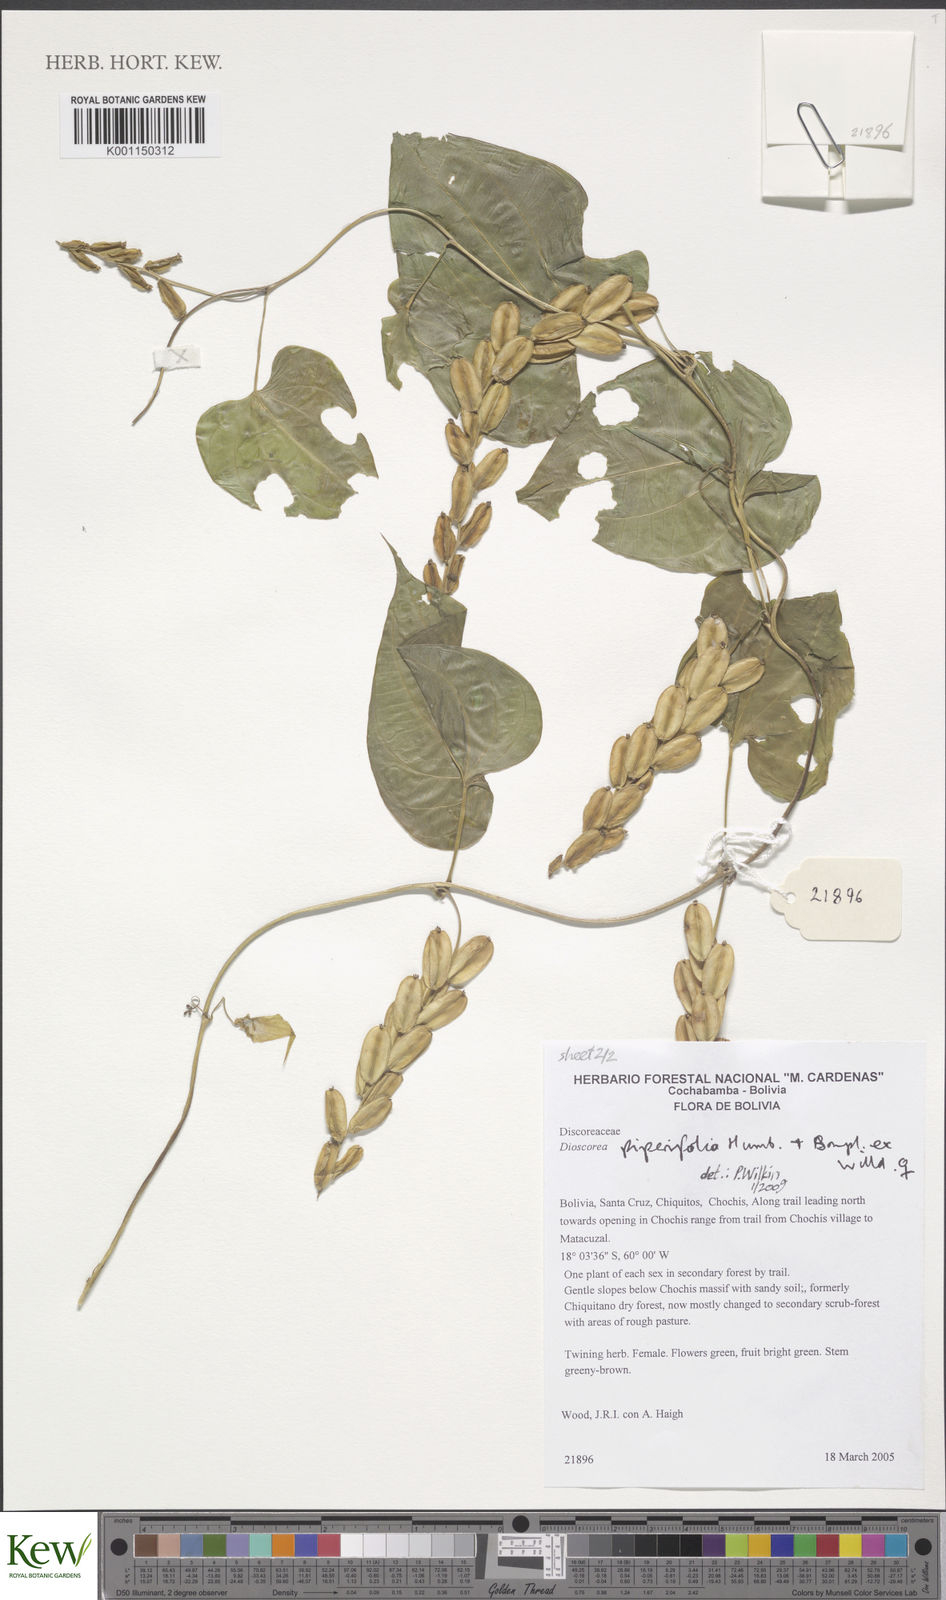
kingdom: Plantae
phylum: Tracheophyta
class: Liliopsida
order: Dioscoreales
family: Dioscoreaceae
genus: Dioscorea
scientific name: Dioscorea piperifolia
